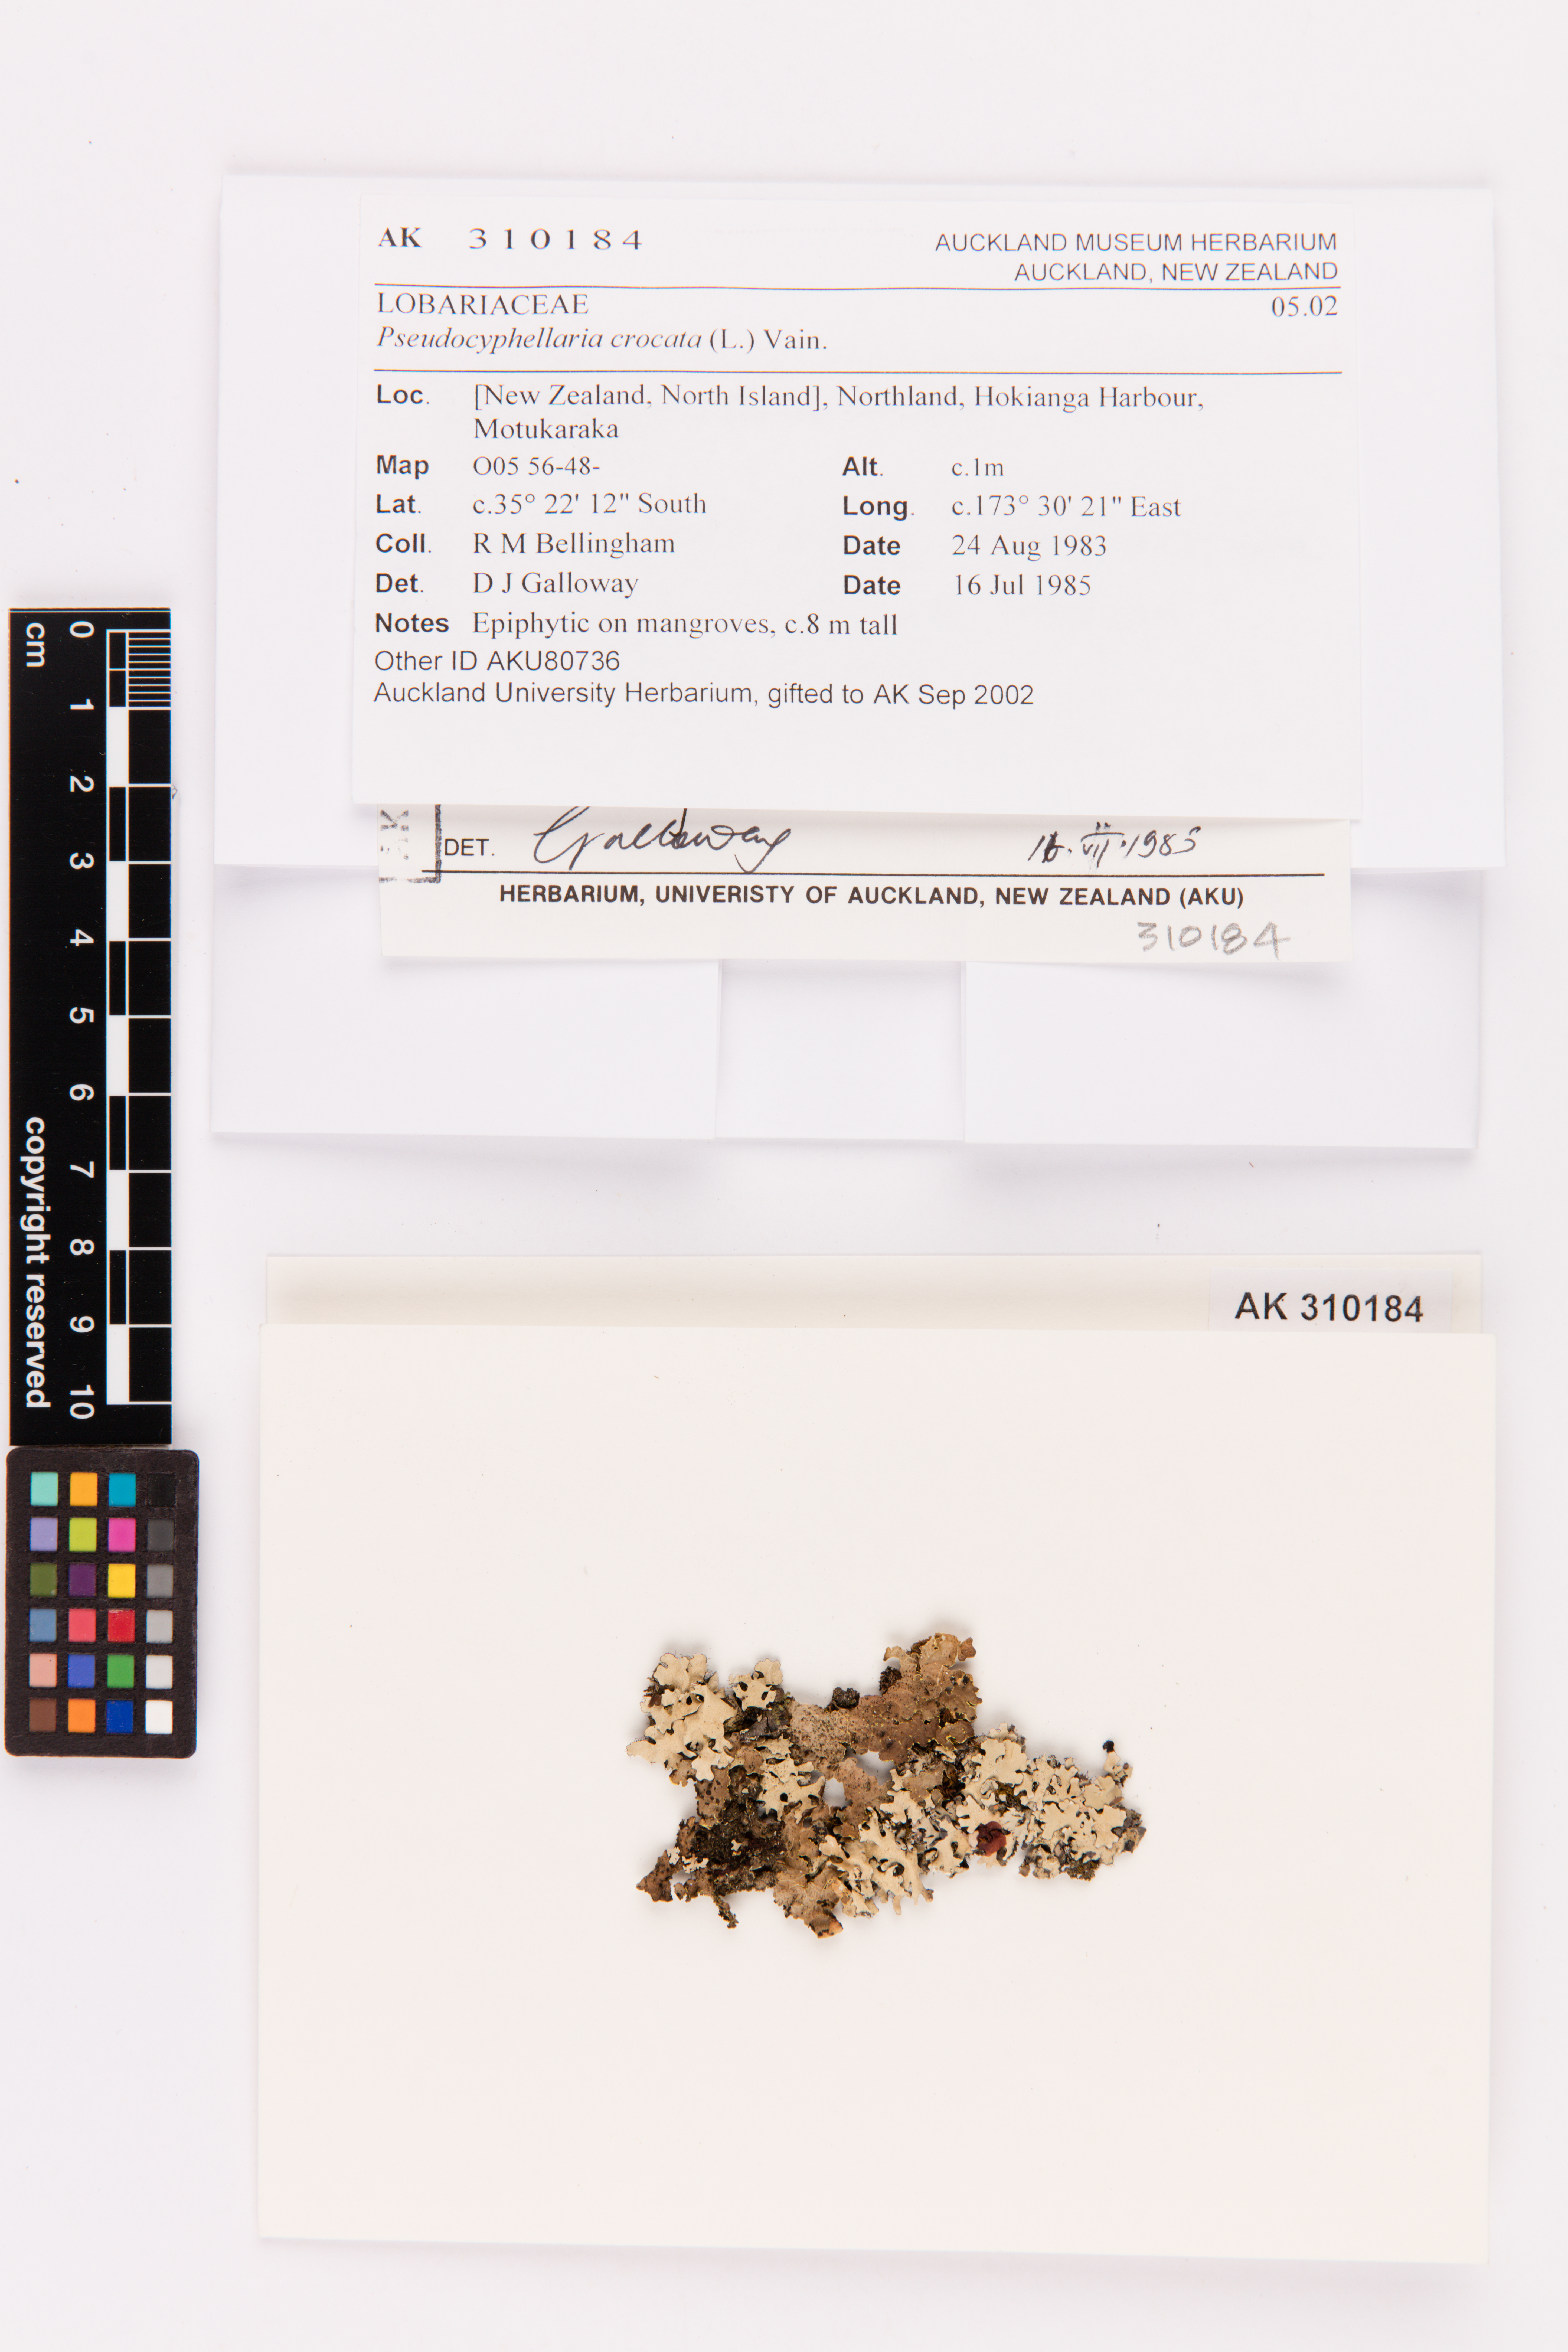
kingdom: Fungi
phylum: Ascomycota
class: Lecanoromycetes
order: Peltigerales
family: Lobariaceae
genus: Pseudocyphellaria
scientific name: Pseudocyphellaria crocata
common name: Golden specklebelly
